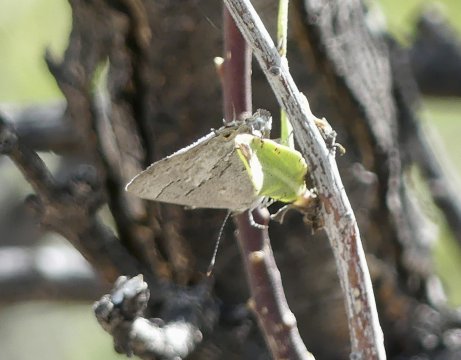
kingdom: Animalia
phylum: Arthropoda
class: Insecta
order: Lepidoptera
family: Lycaenidae
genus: Ministrymon
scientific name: Ministrymon leda
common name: Leda Ministreak
